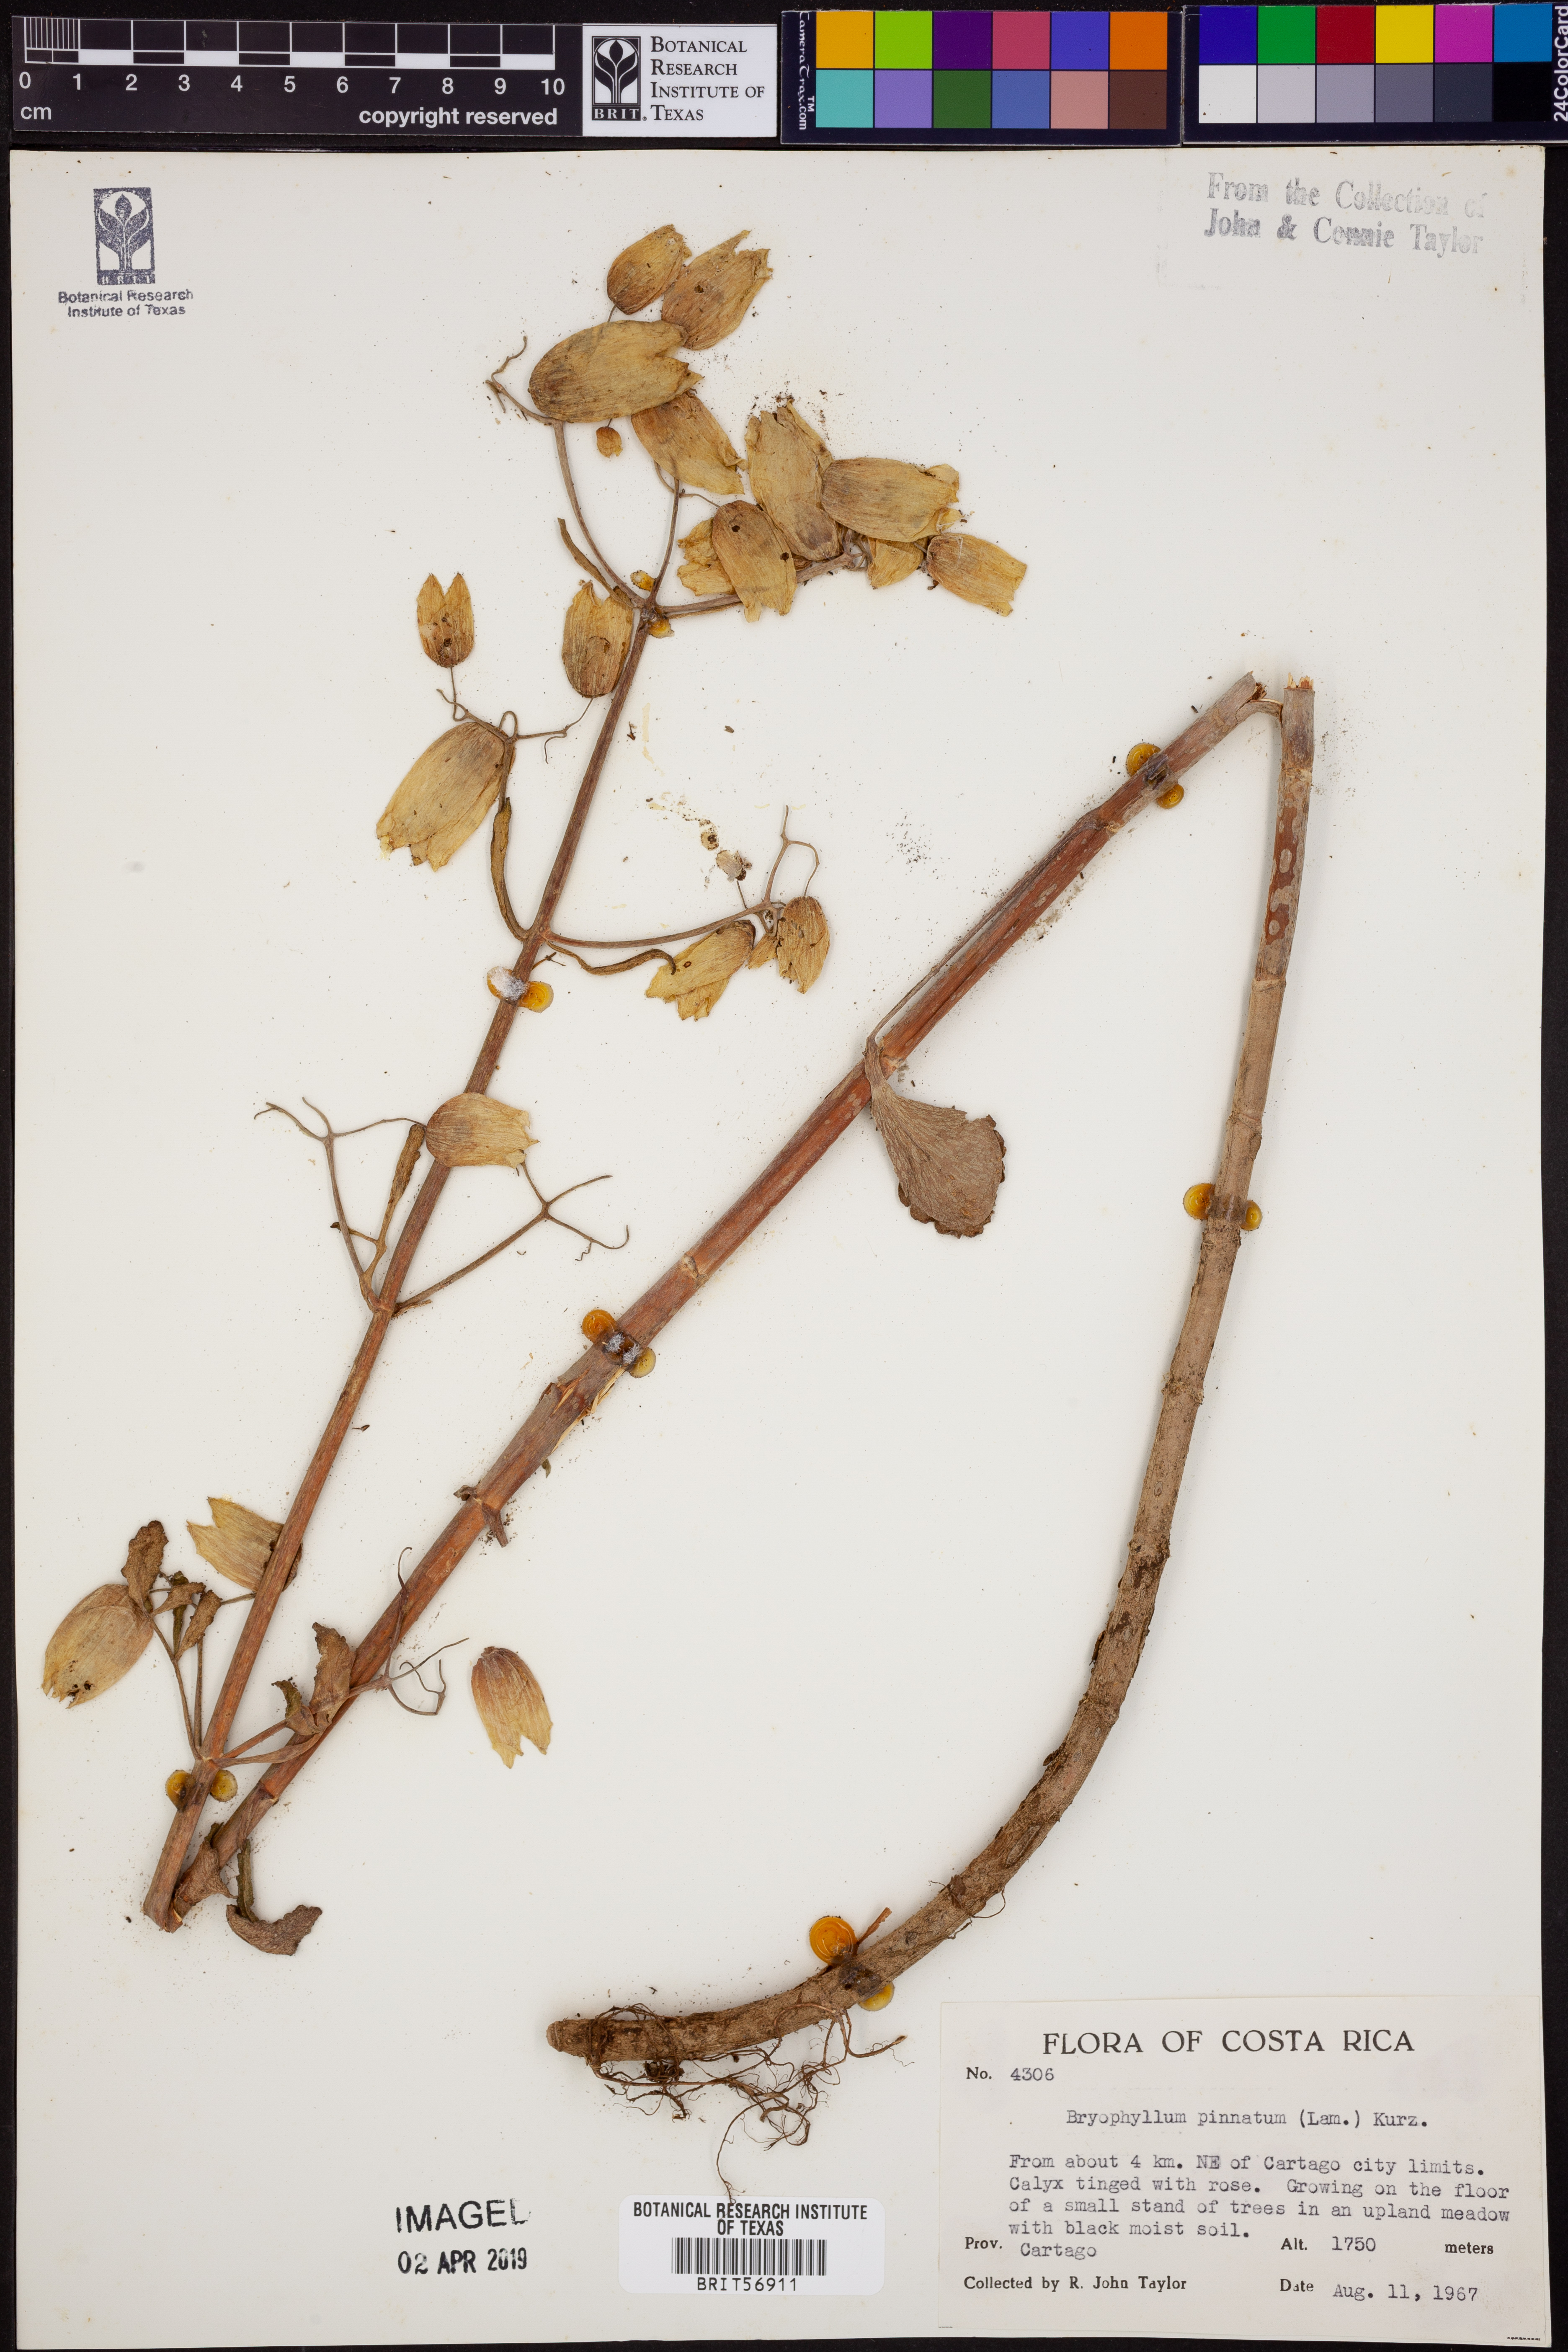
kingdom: Plantae
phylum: Tracheophyta
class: Magnoliopsida
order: Saxifragales
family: Crassulaceae
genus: Kalanchoe
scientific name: Kalanchoe pinnata
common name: Cathedral bells
